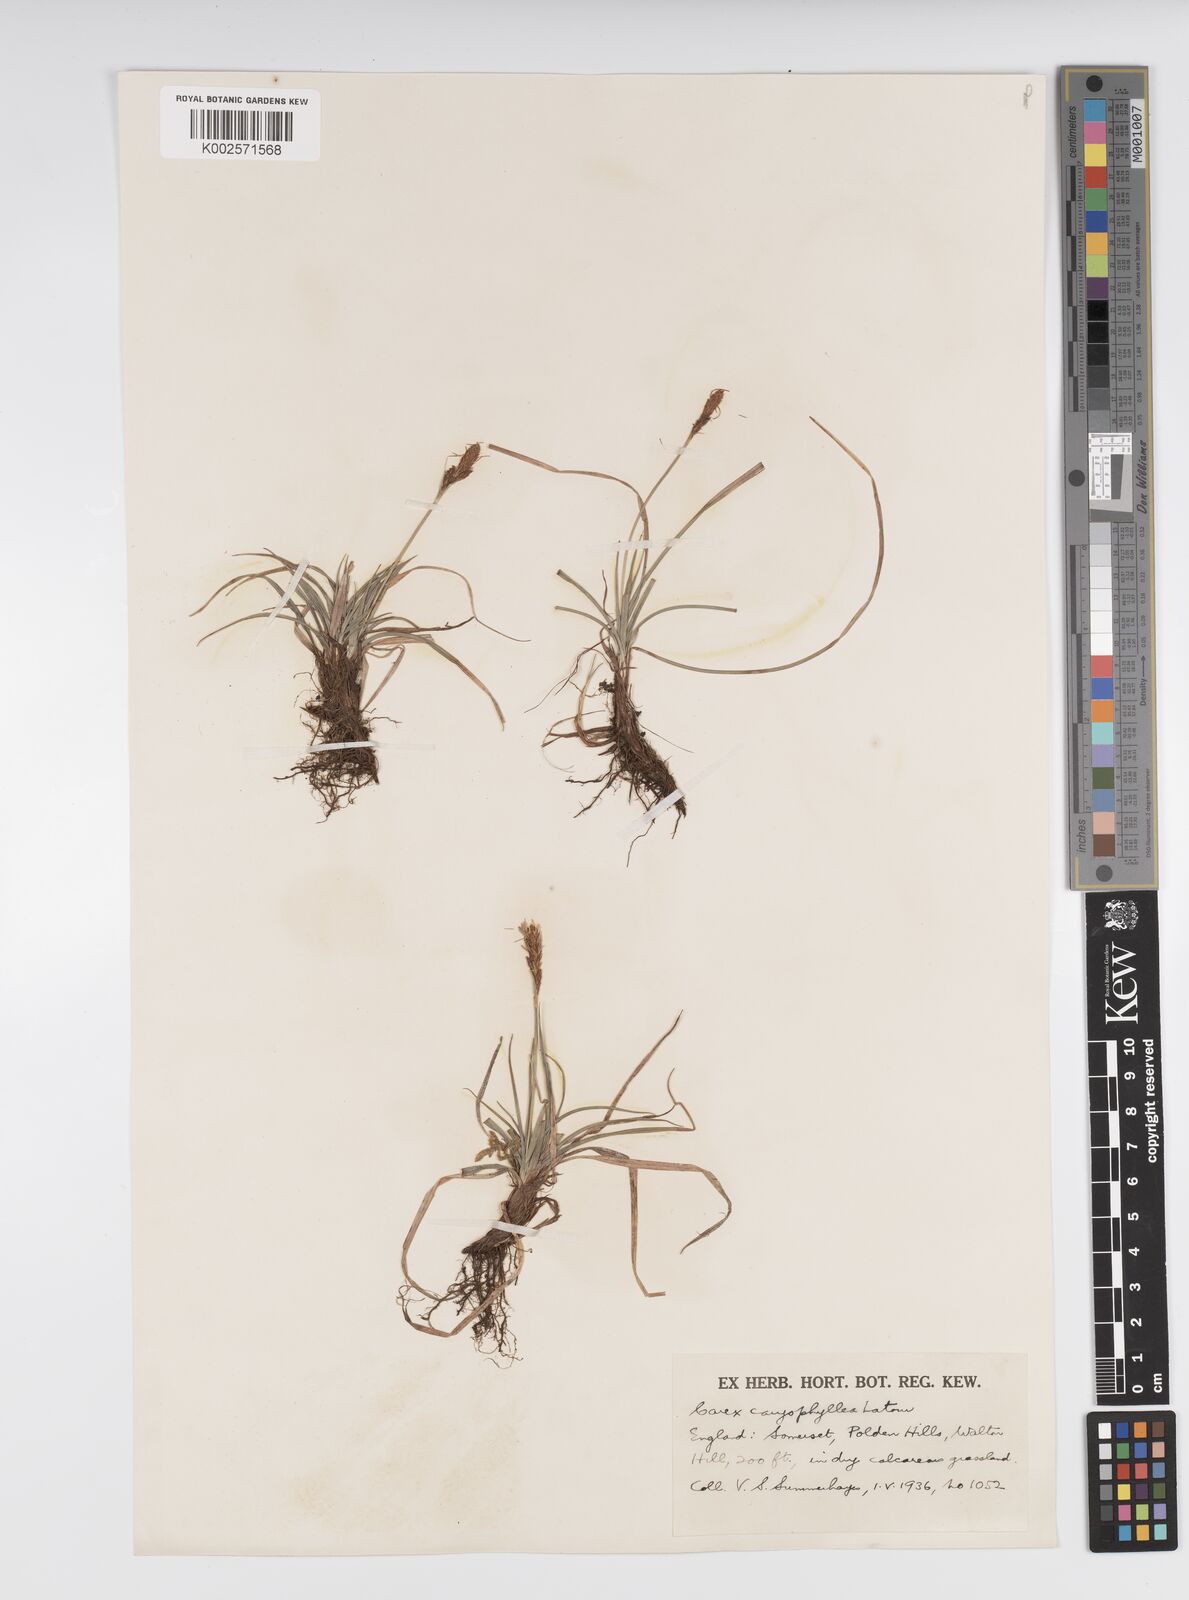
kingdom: Plantae
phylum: Tracheophyta
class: Liliopsida
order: Poales
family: Cyperaceae
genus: Carex
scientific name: Carex caryophyllea
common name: Spring sedge
